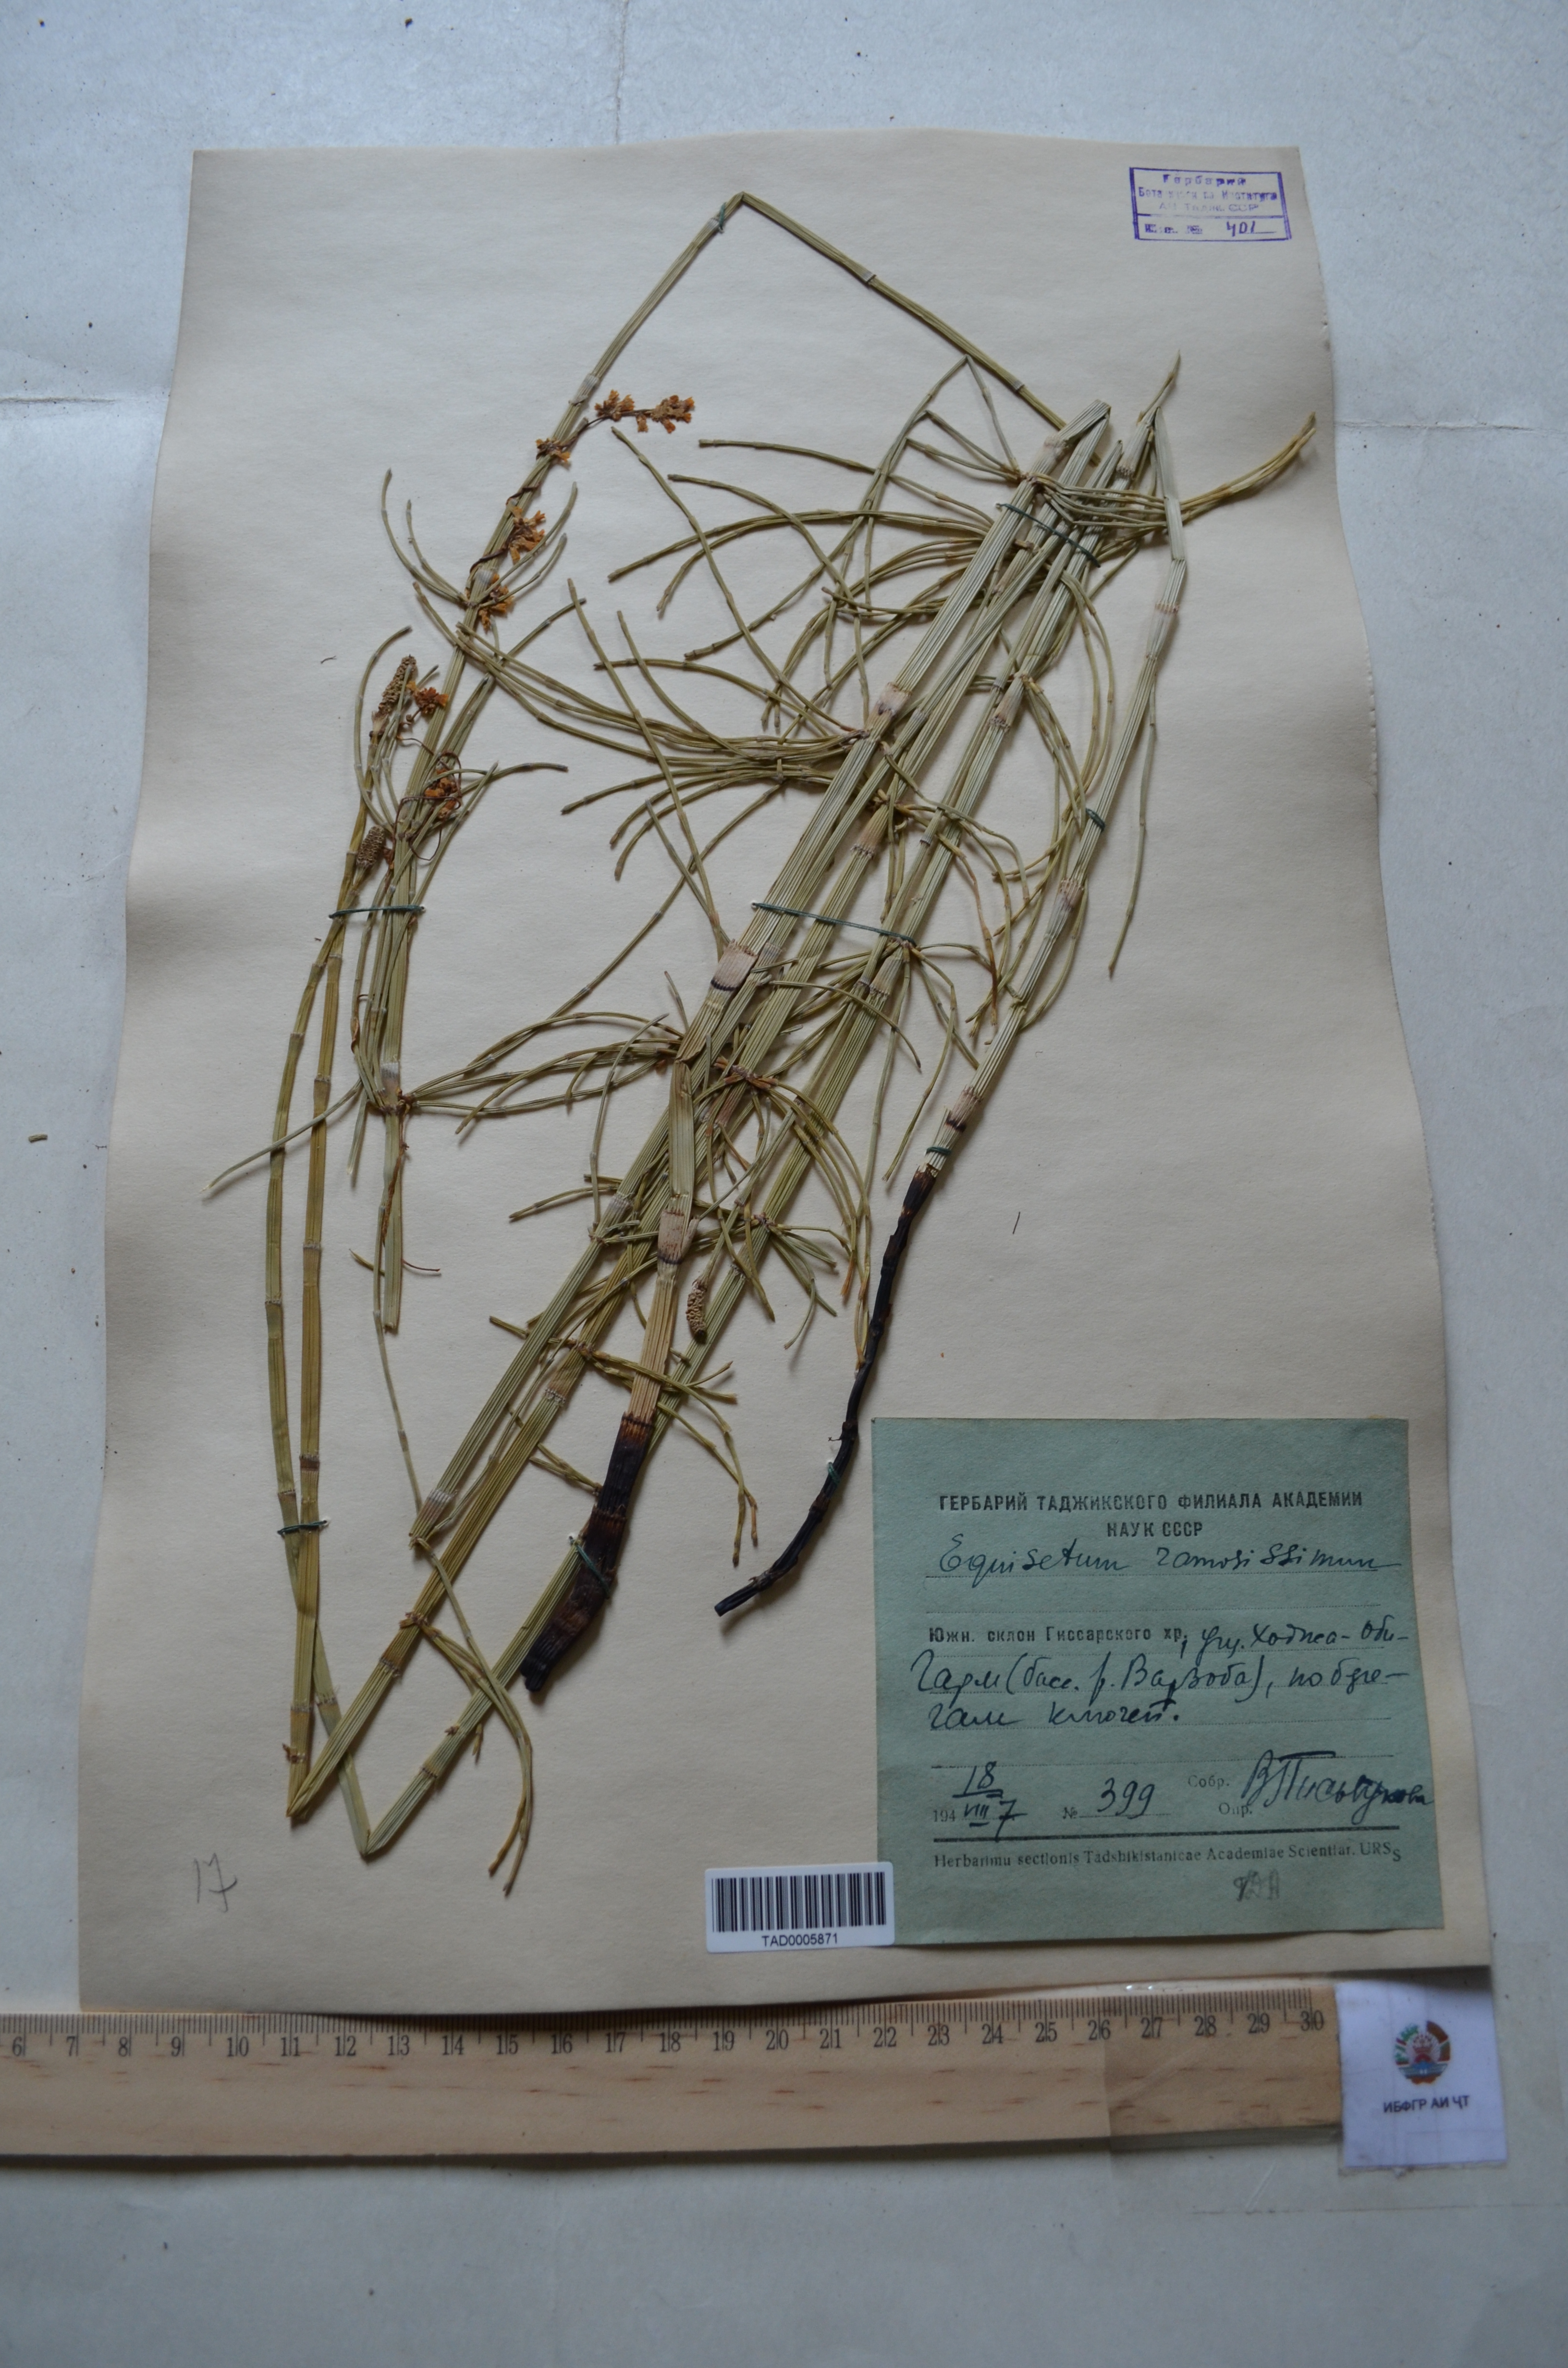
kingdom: Plantae
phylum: Tracheophyta
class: Polypodiopsida
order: Equisetales
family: Equisetaceae
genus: Equisetum
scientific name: Equisetum ramosissimum
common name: Branched horsetail
